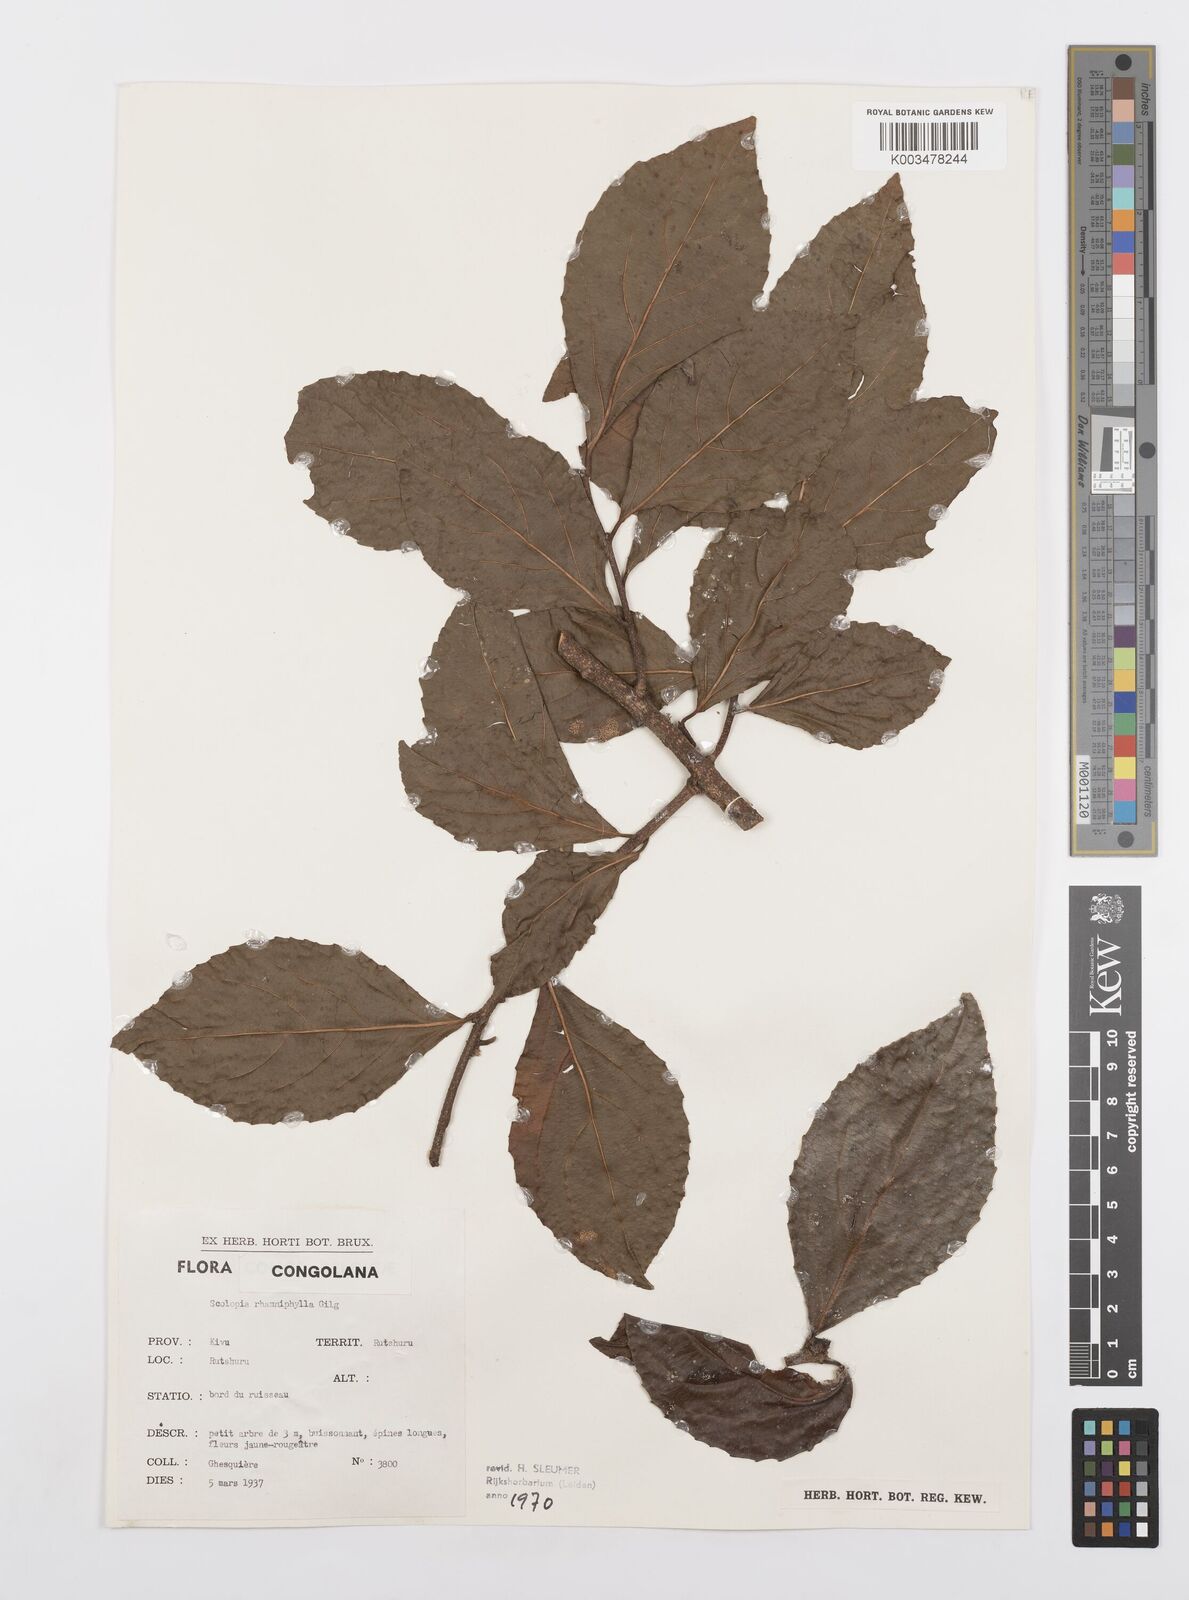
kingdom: Plantae
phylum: Tracheophyta
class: Magnoliopsida
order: Malpighiales
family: Salicaceae
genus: Scolopia
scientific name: Scolopia rhamniphylla
